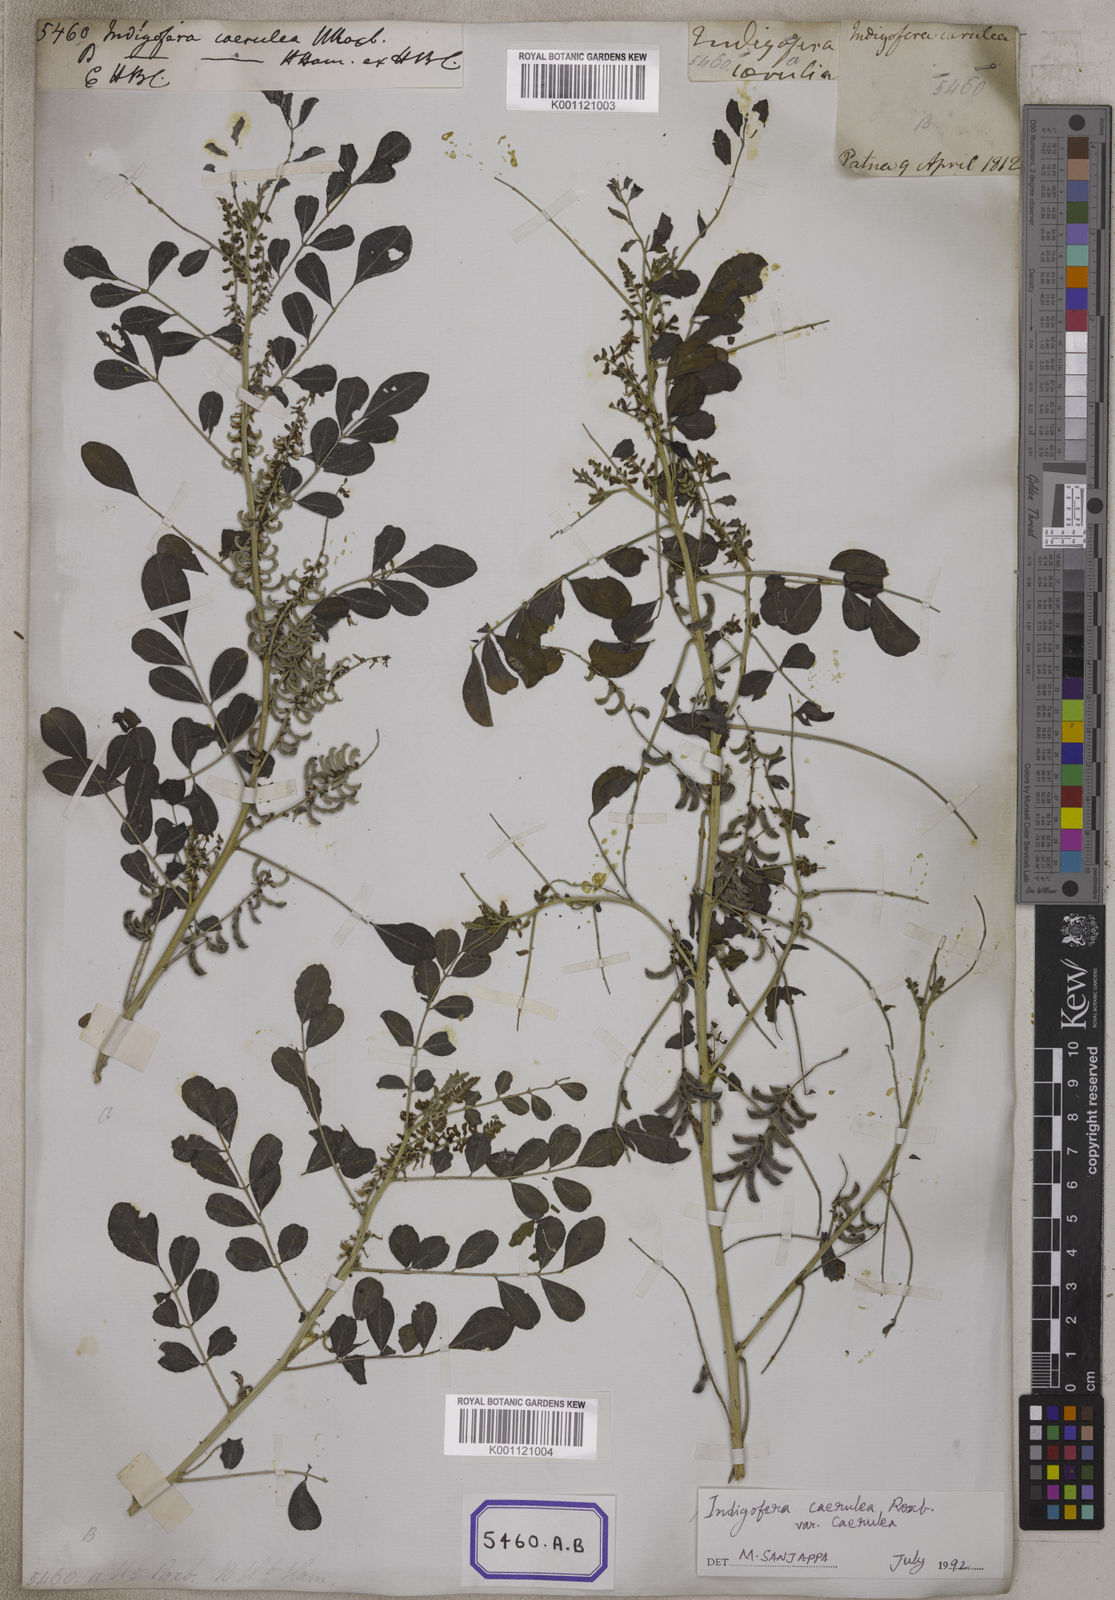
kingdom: Plantae
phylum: Tracheophyta
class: Magnoliopsida
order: Fabales
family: Fabaceae
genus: Indigofera
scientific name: Indigofera
